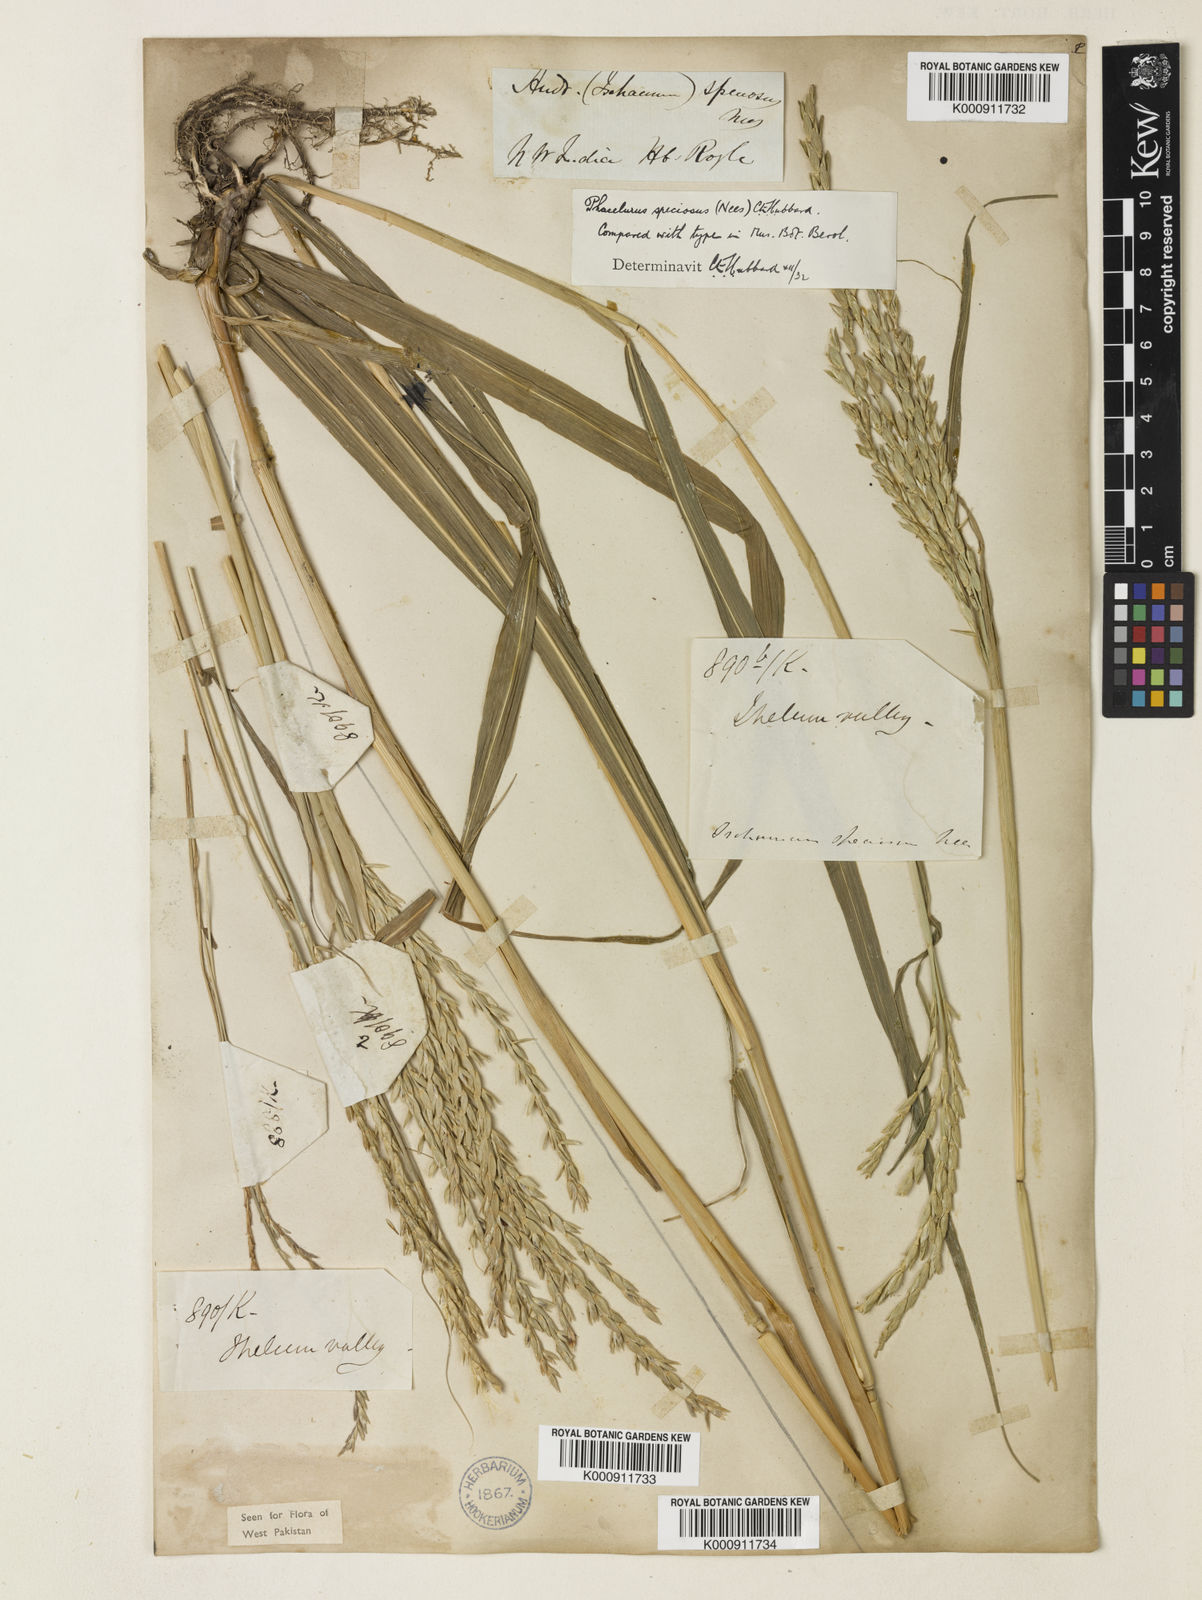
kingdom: Plantae
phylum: Tracheophyta
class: Liliopsida
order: Poales
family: Poaceae
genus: Phacelurus
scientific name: Phacelurus speciosus
